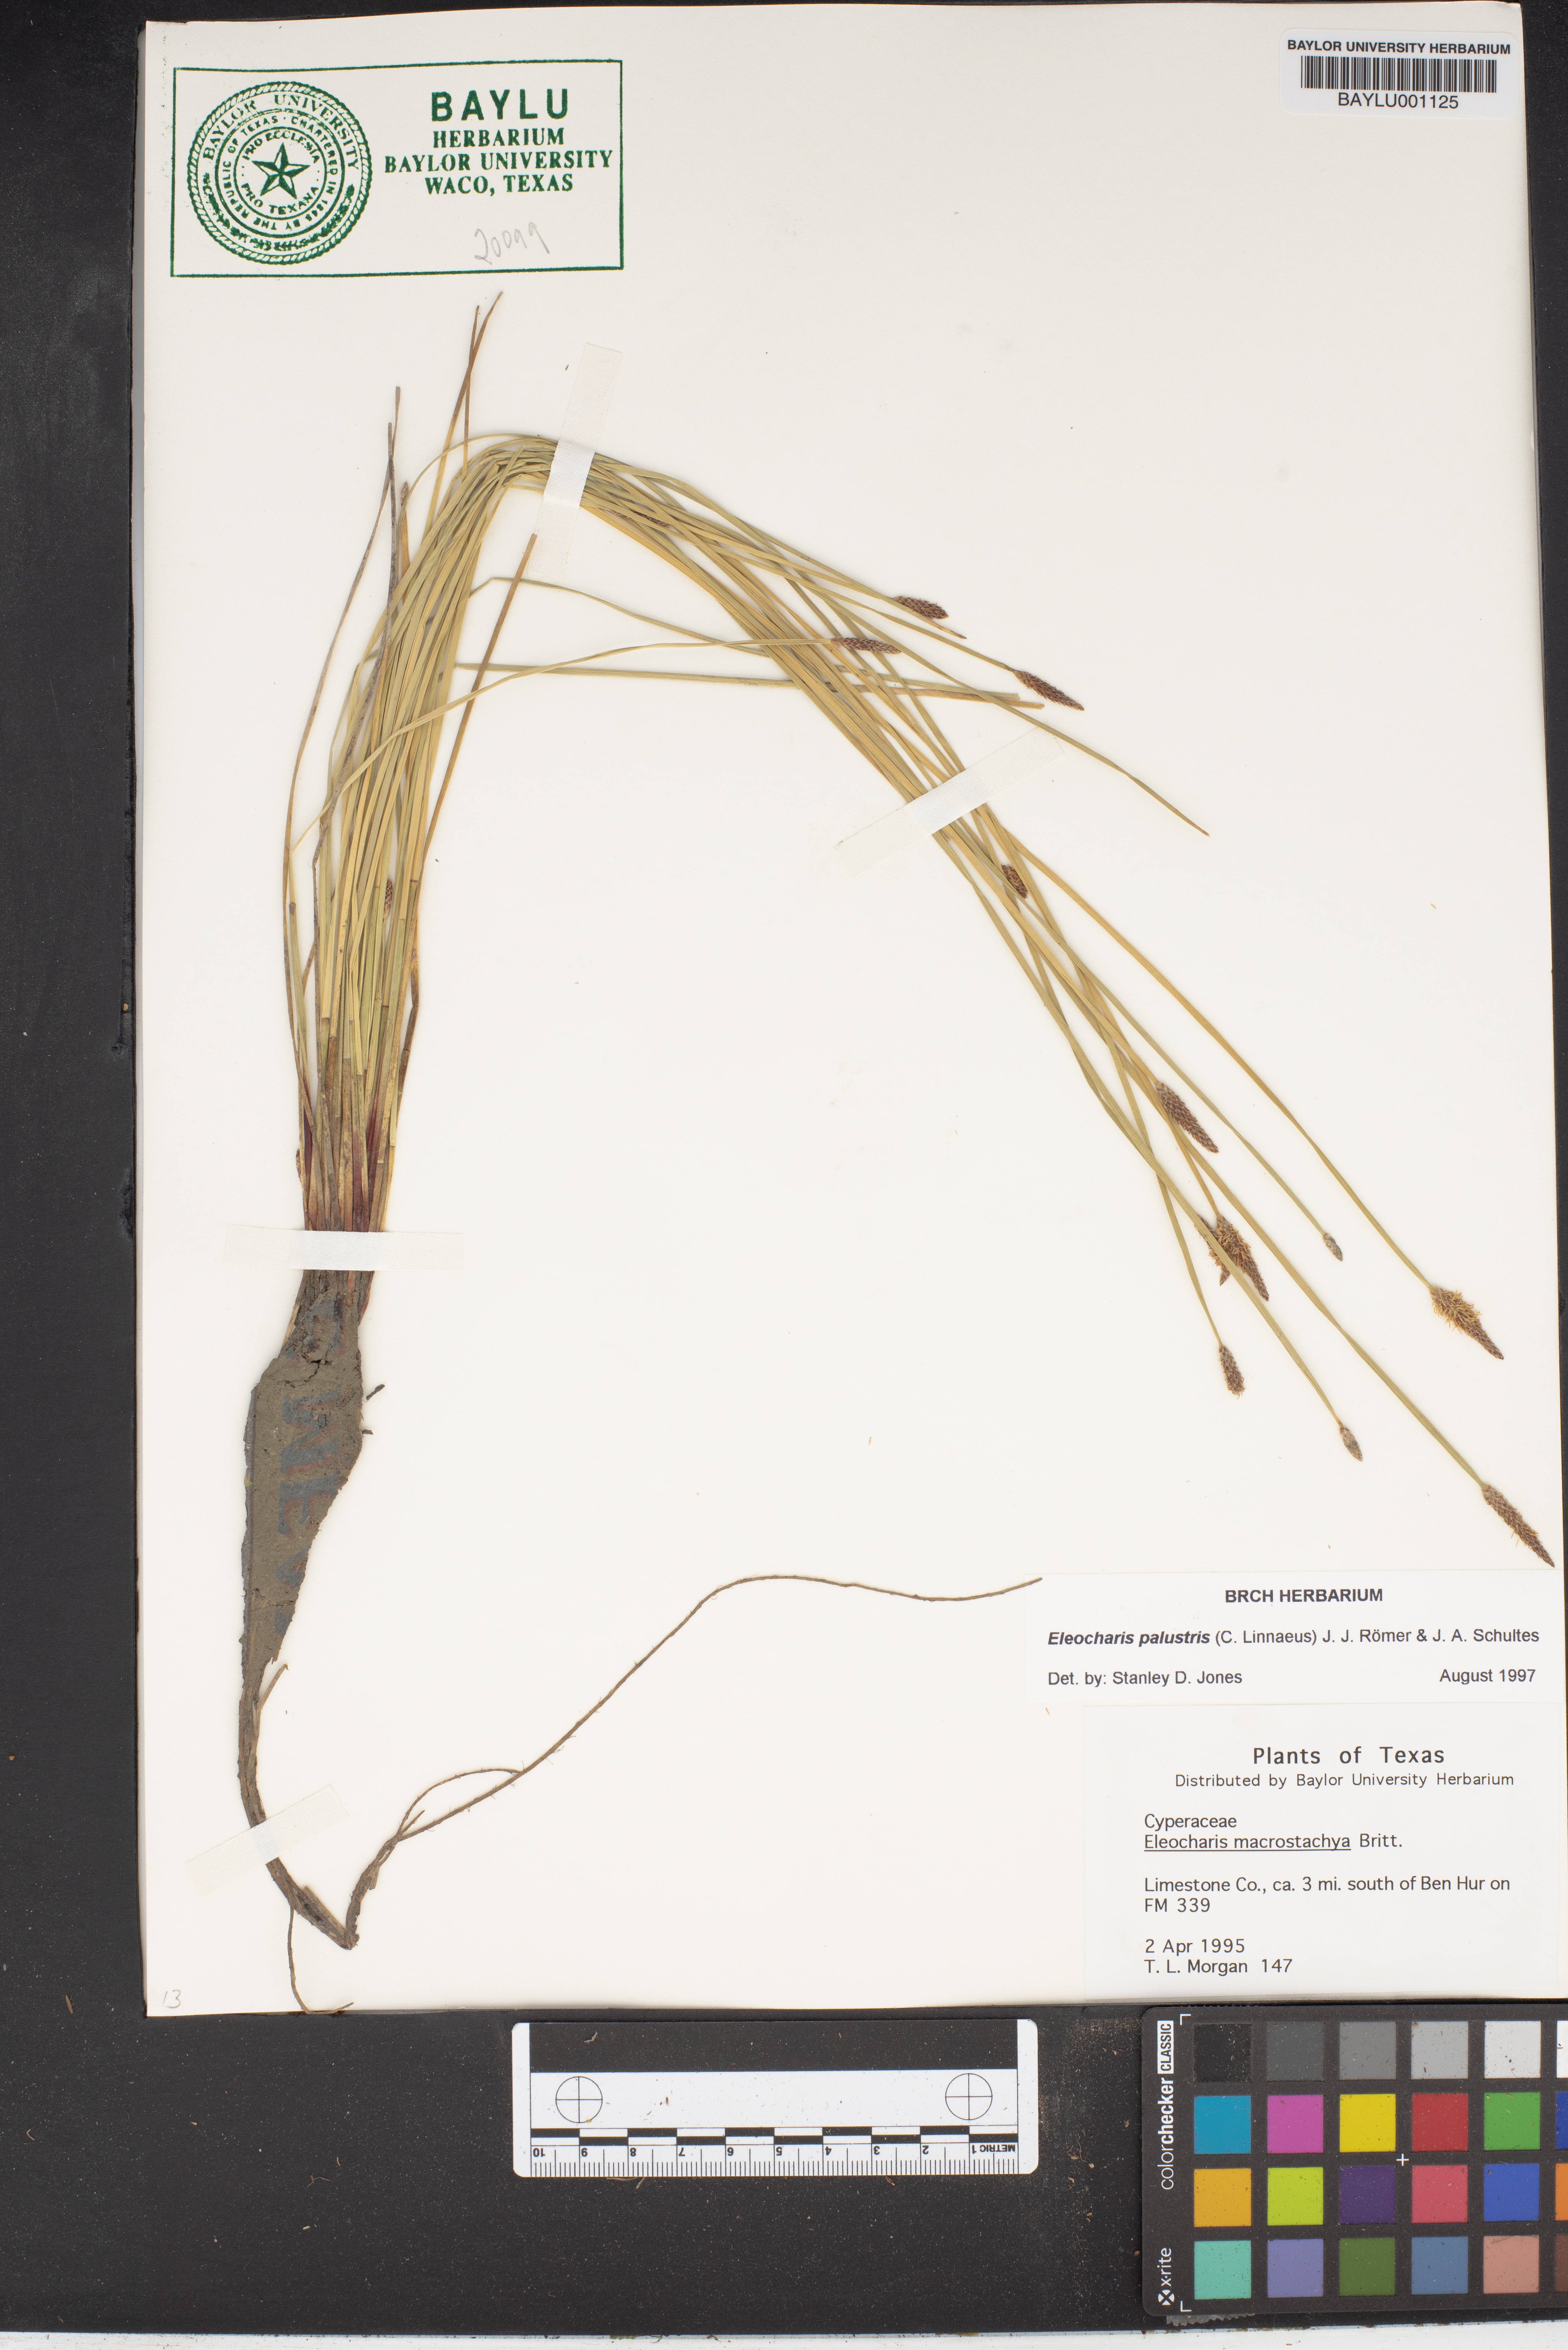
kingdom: Plantae
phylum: Tracheophyta
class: Liliopsida
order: Poales
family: Cyperaceae
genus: Eleocharis
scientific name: Eleocharis palustris
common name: Common spike-rush
